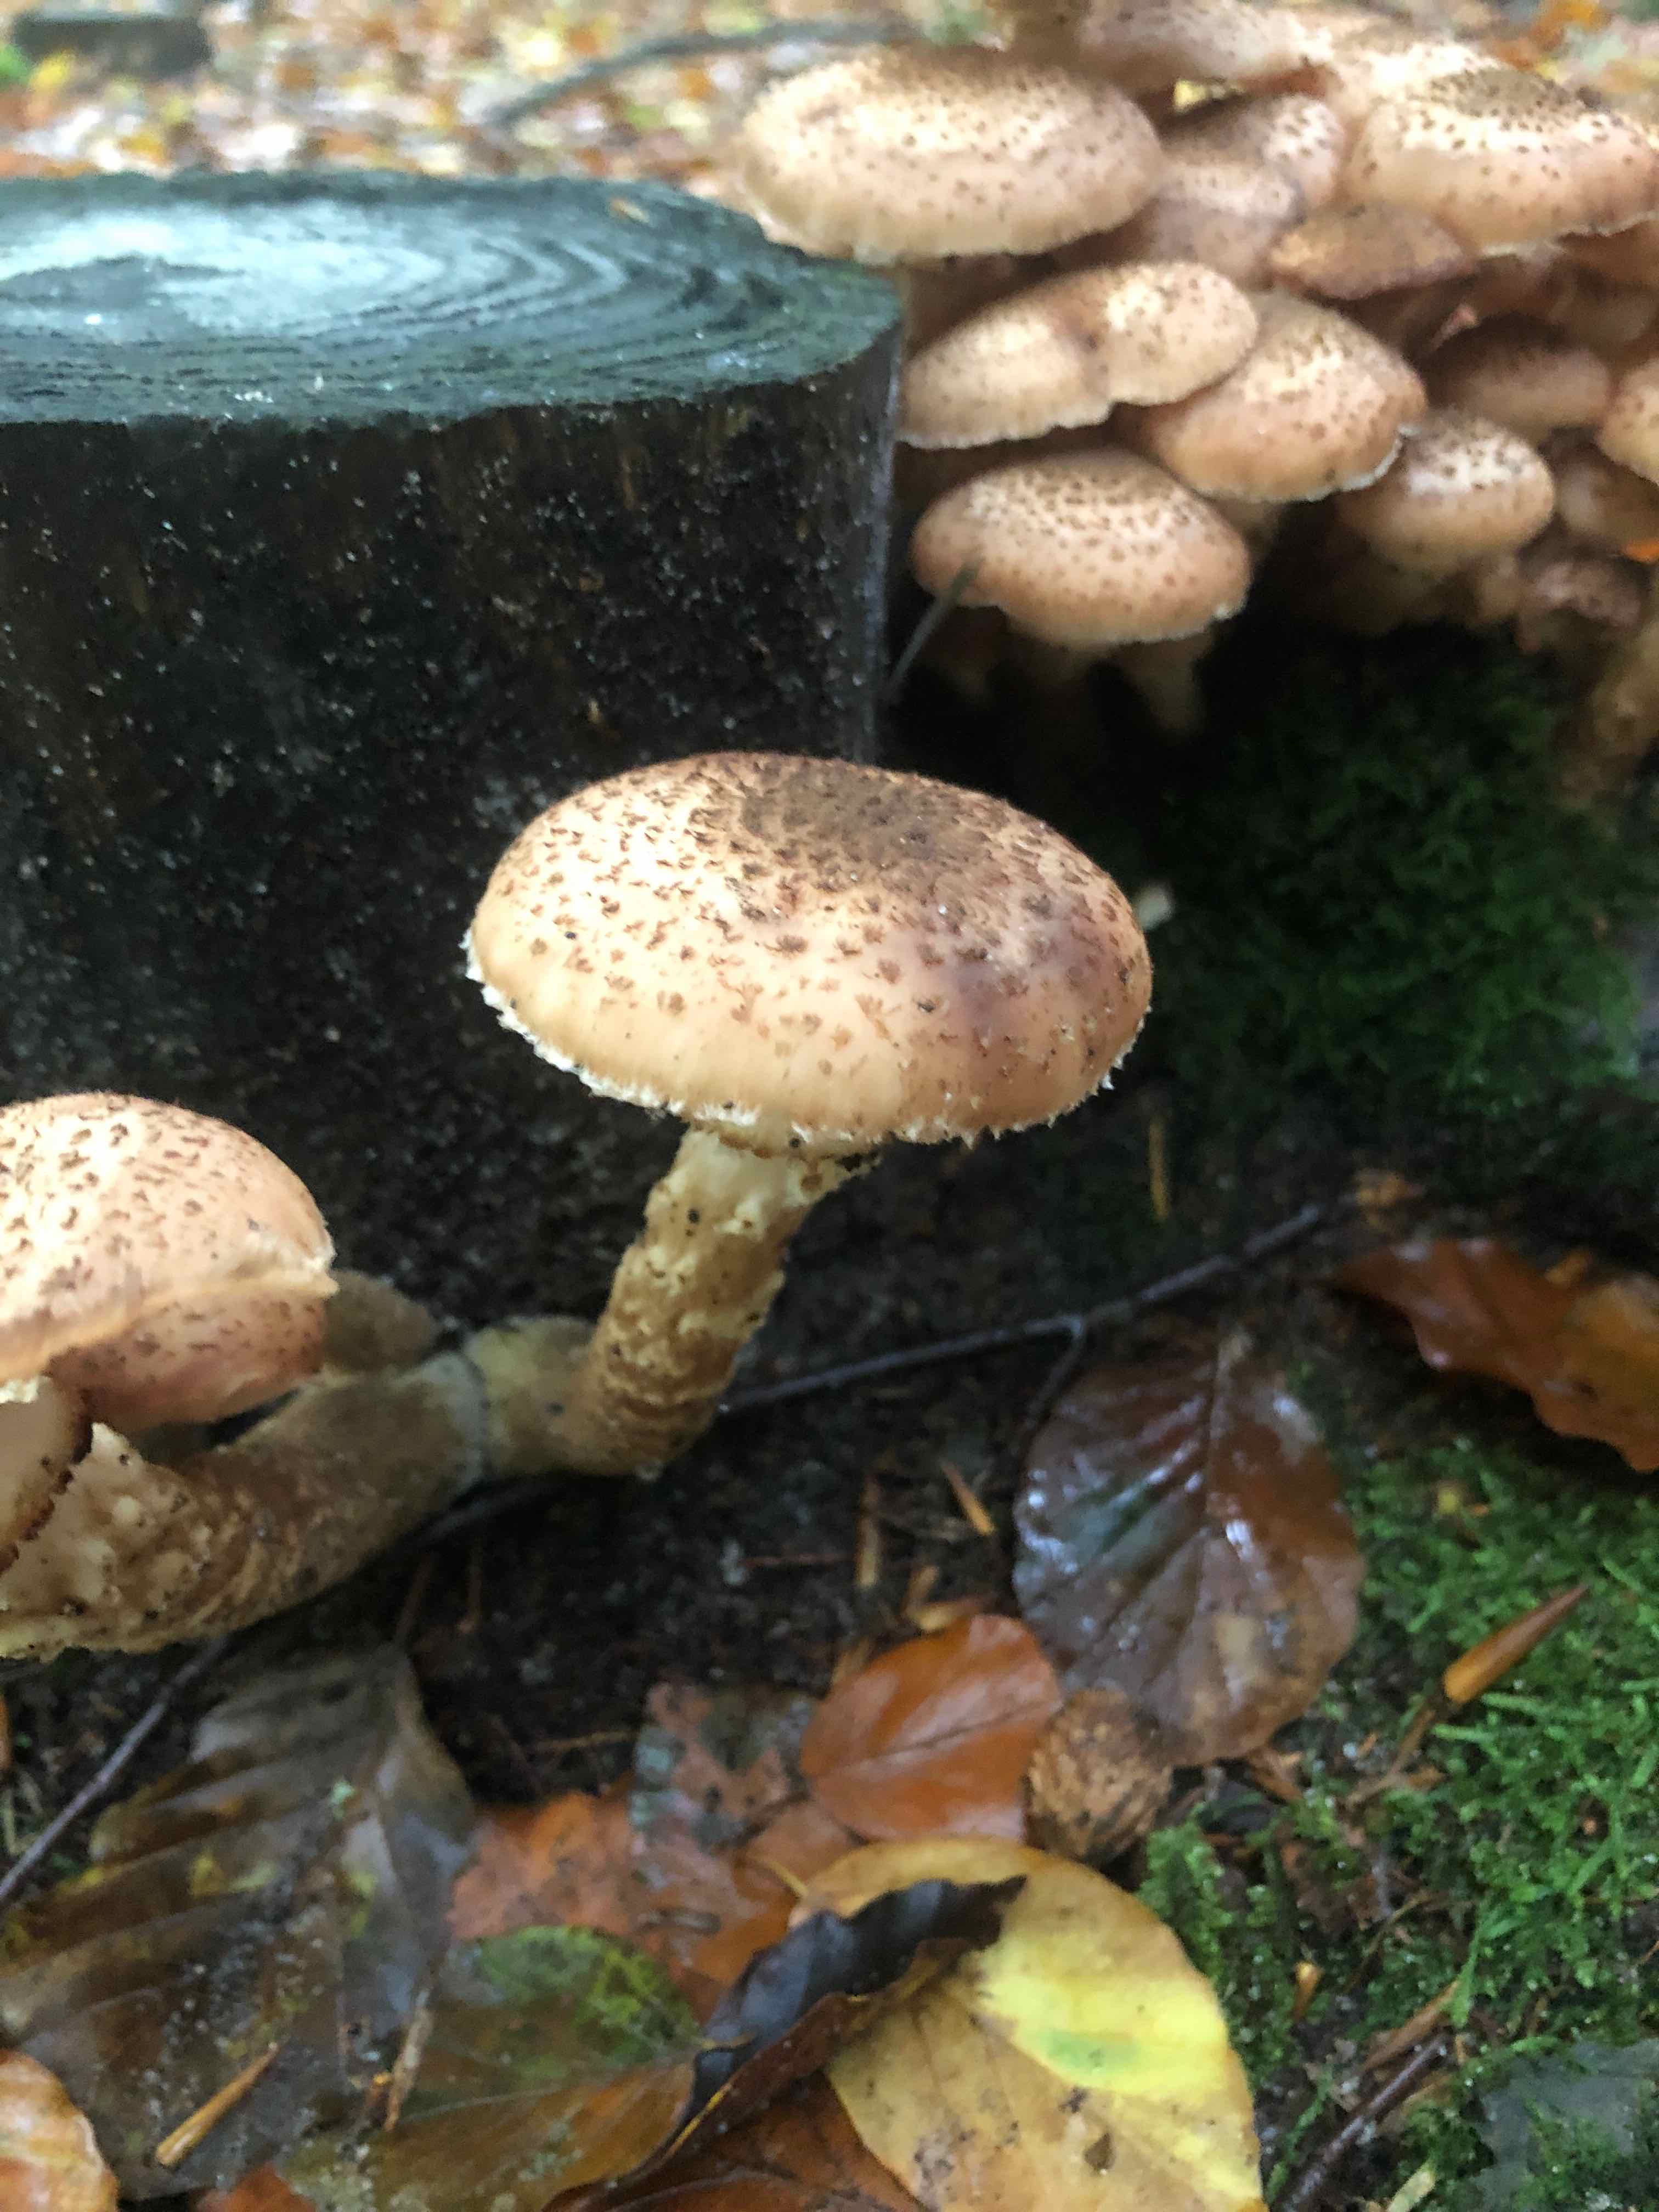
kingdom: Fungi
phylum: Basidiomycota
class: Agaricomycetes
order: Agaricales
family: Physalacriaceae
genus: Armillaria
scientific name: Armillaria ostoyae
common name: mørk honningsvamp
